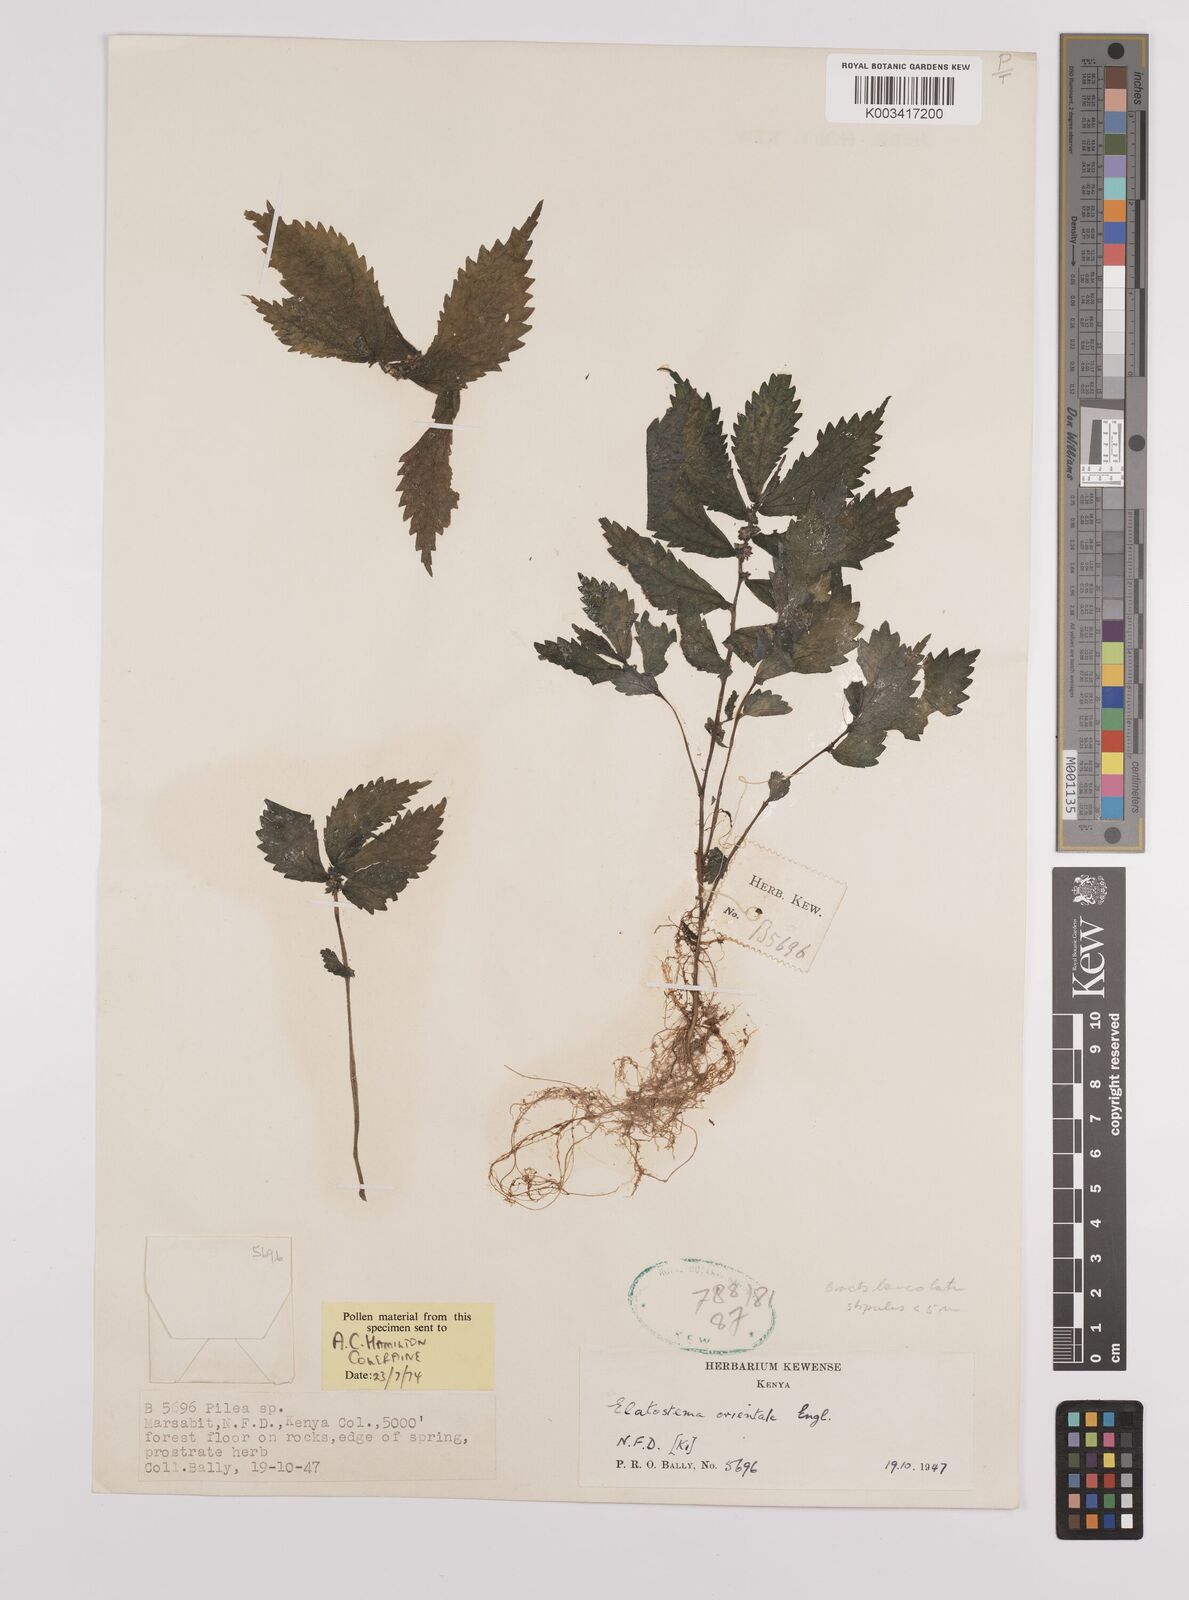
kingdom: Plantae
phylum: Tracheophyta
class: Magnoliopsida
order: Rosales
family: Urticaceae
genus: Elatostema
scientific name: Elatostema monticola
